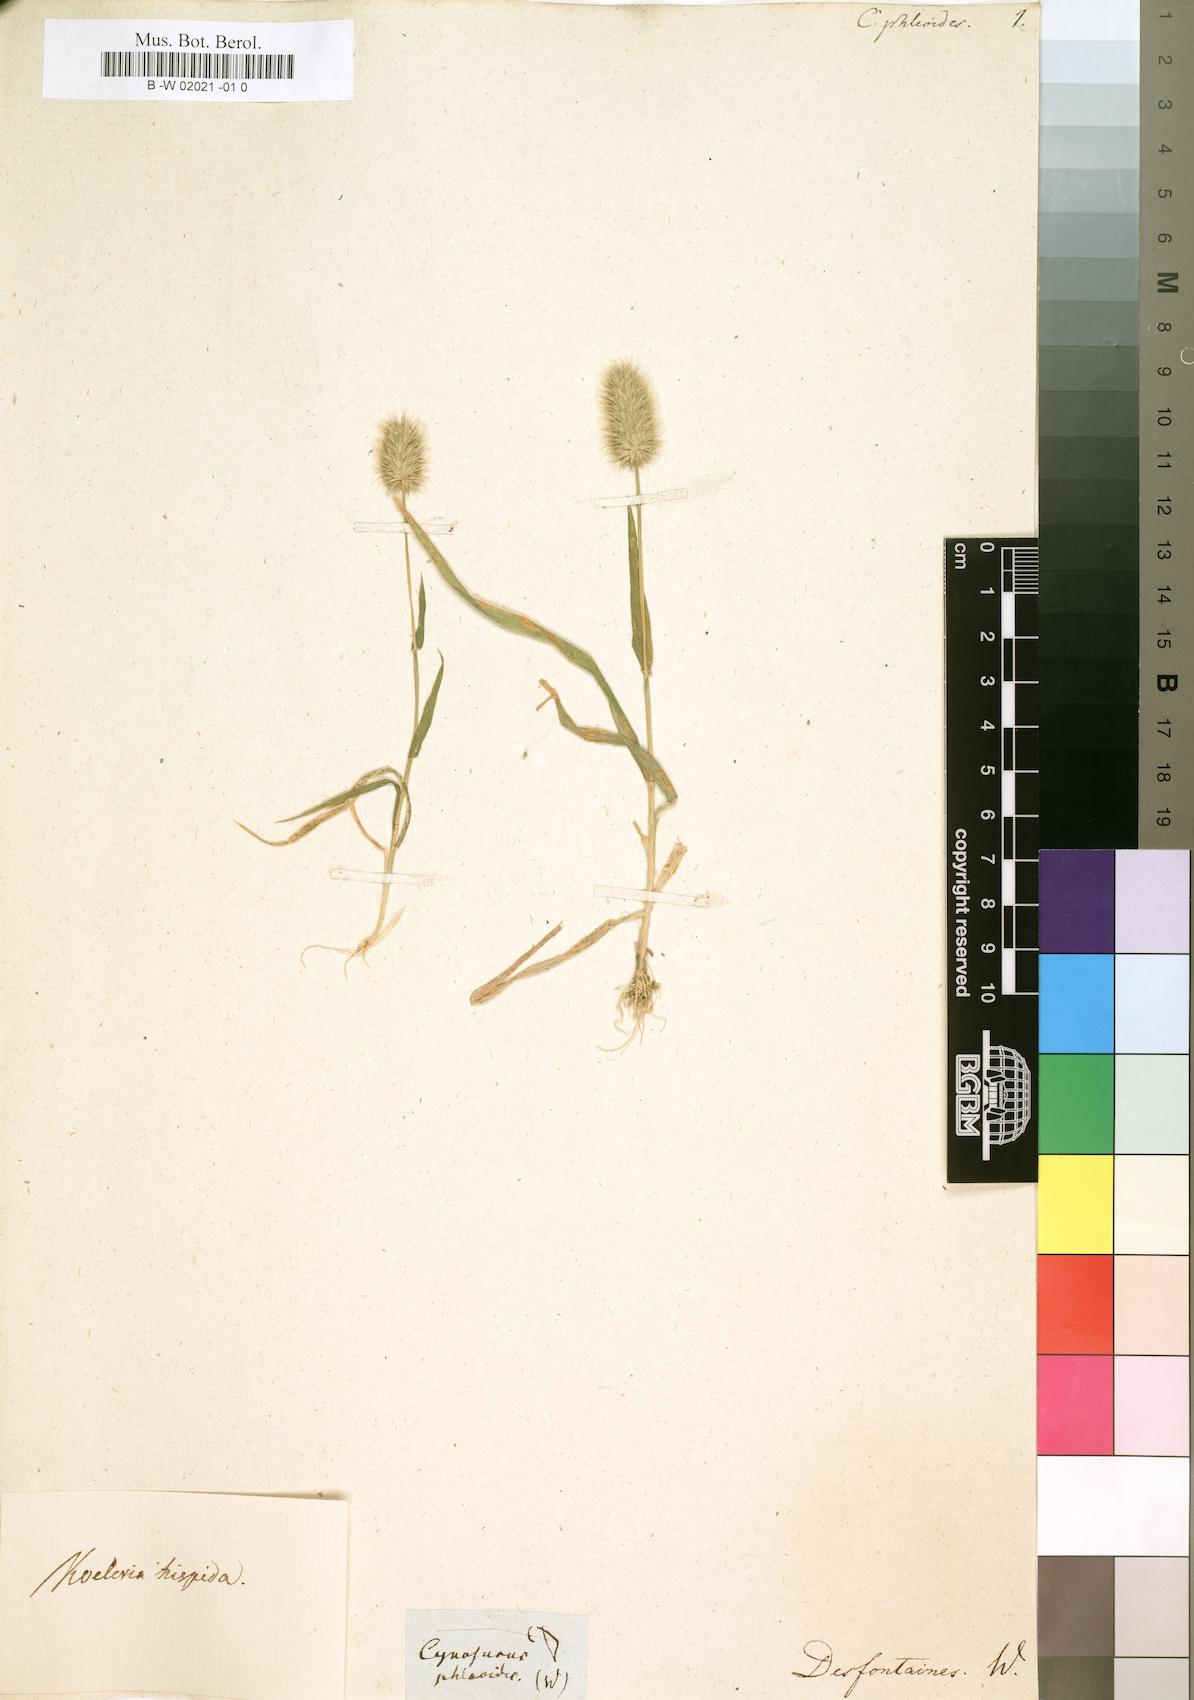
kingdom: Plantae
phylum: Tracheophyta
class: Liliopsida
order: Poales
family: Poaceae
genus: Rostraria
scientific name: Rostraria hispida
